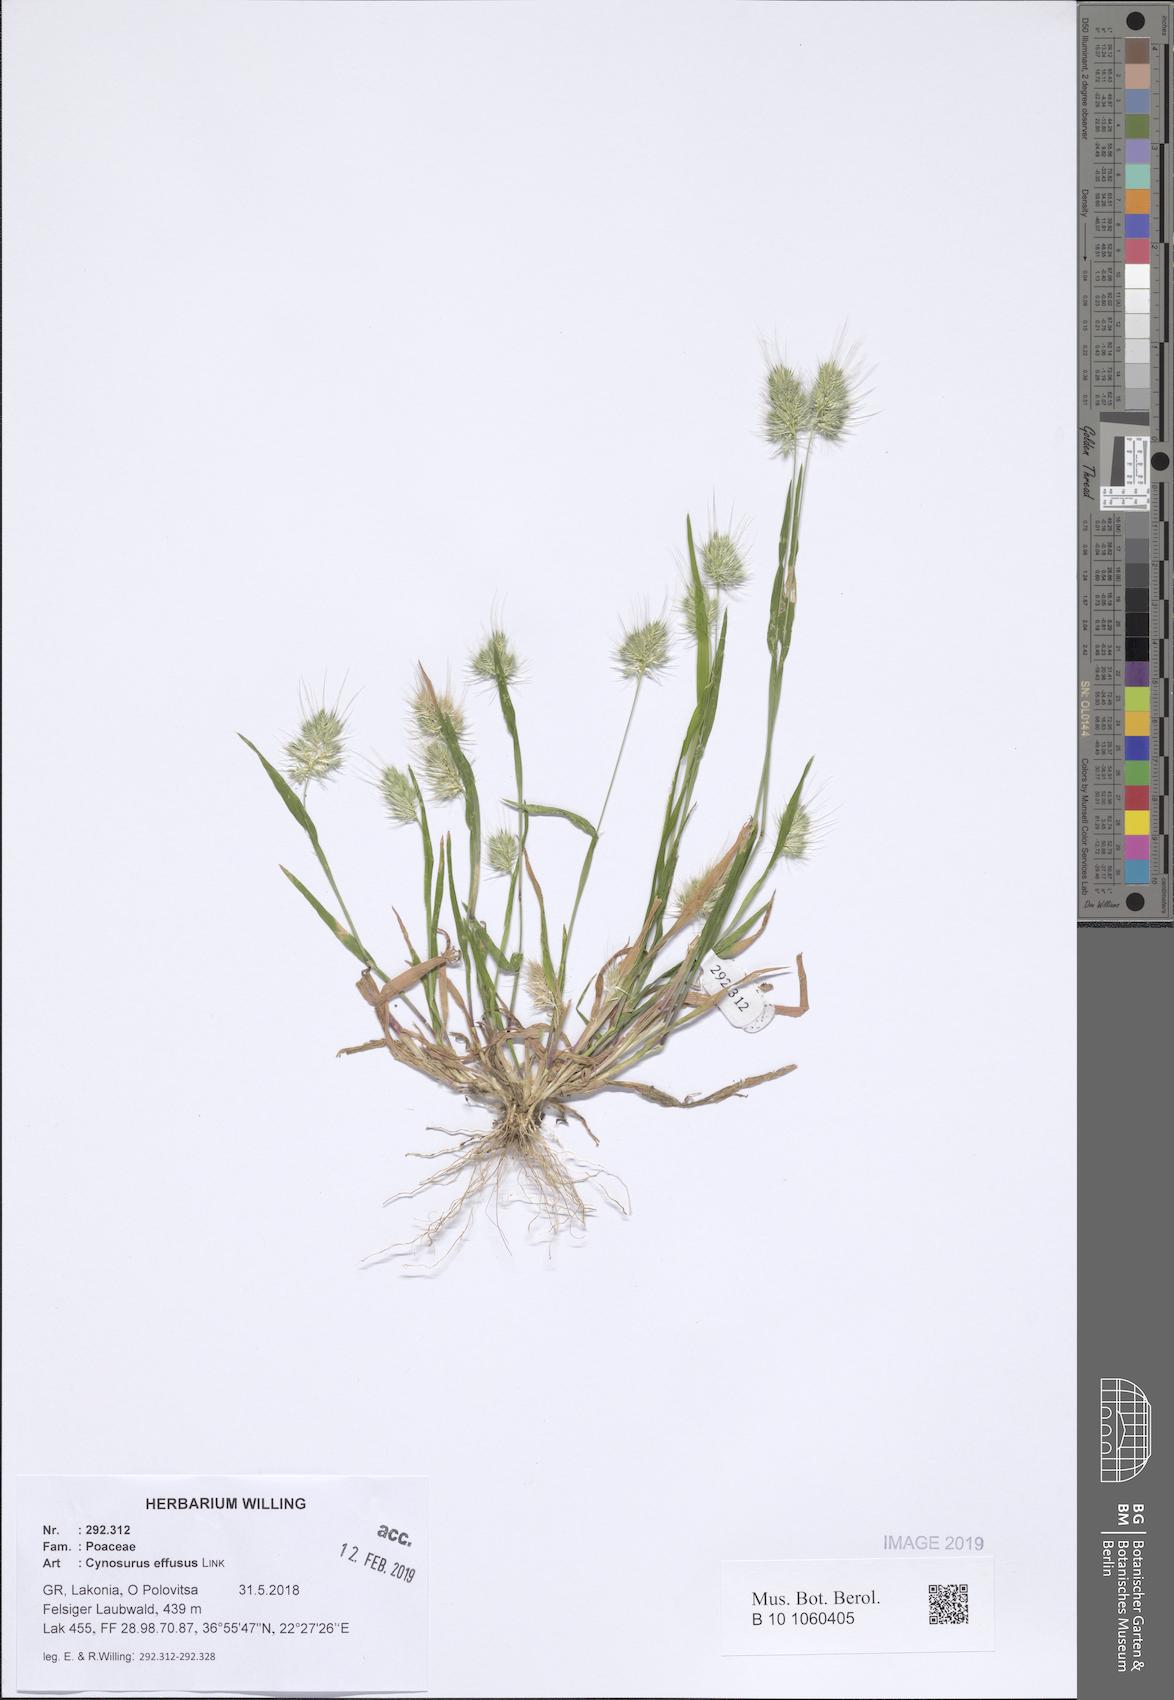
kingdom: Plantae
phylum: Tracheophyta
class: Liliopsida
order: Poales
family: Poaceae
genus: Cynosurus
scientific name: Cynosurus effusus
